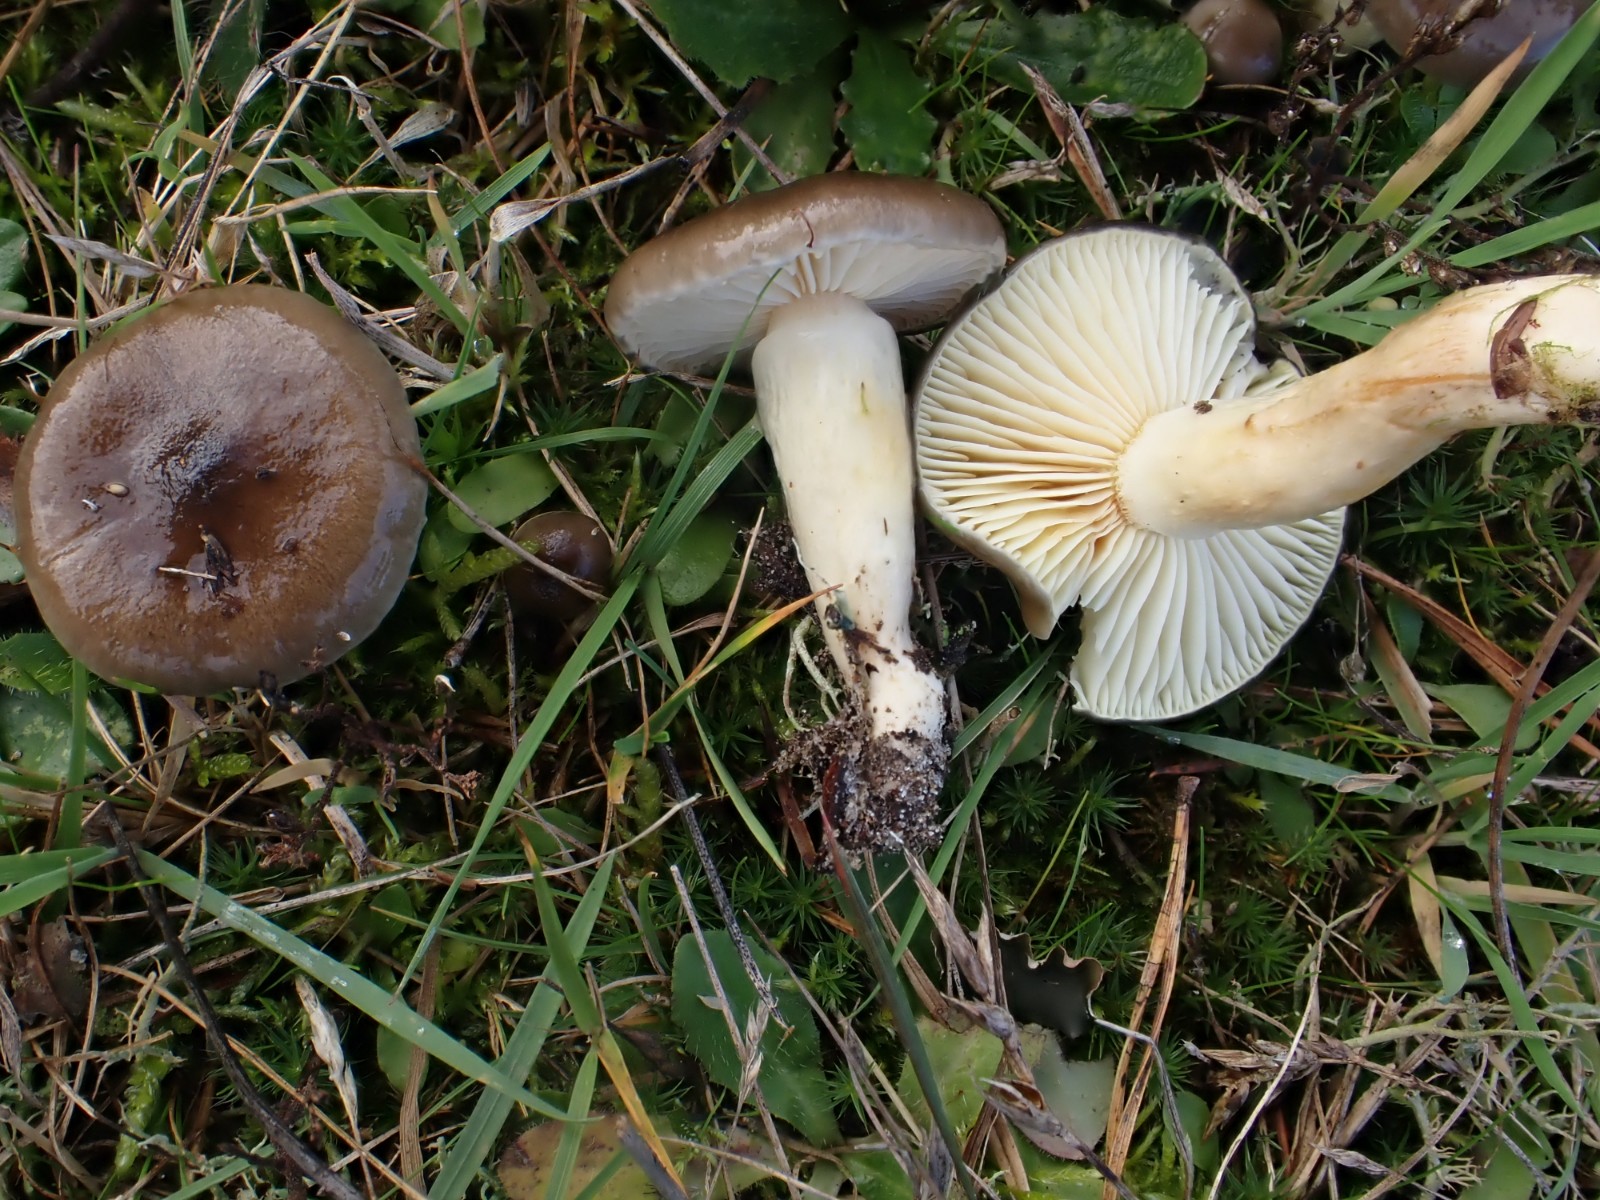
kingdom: Fungi
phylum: Basidiomycota
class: Agaricomycetes
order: Agaricales
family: Hygrophoraceae
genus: Hygrophorus
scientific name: Hygrophorus hypothejus
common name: frost-sneglehat
